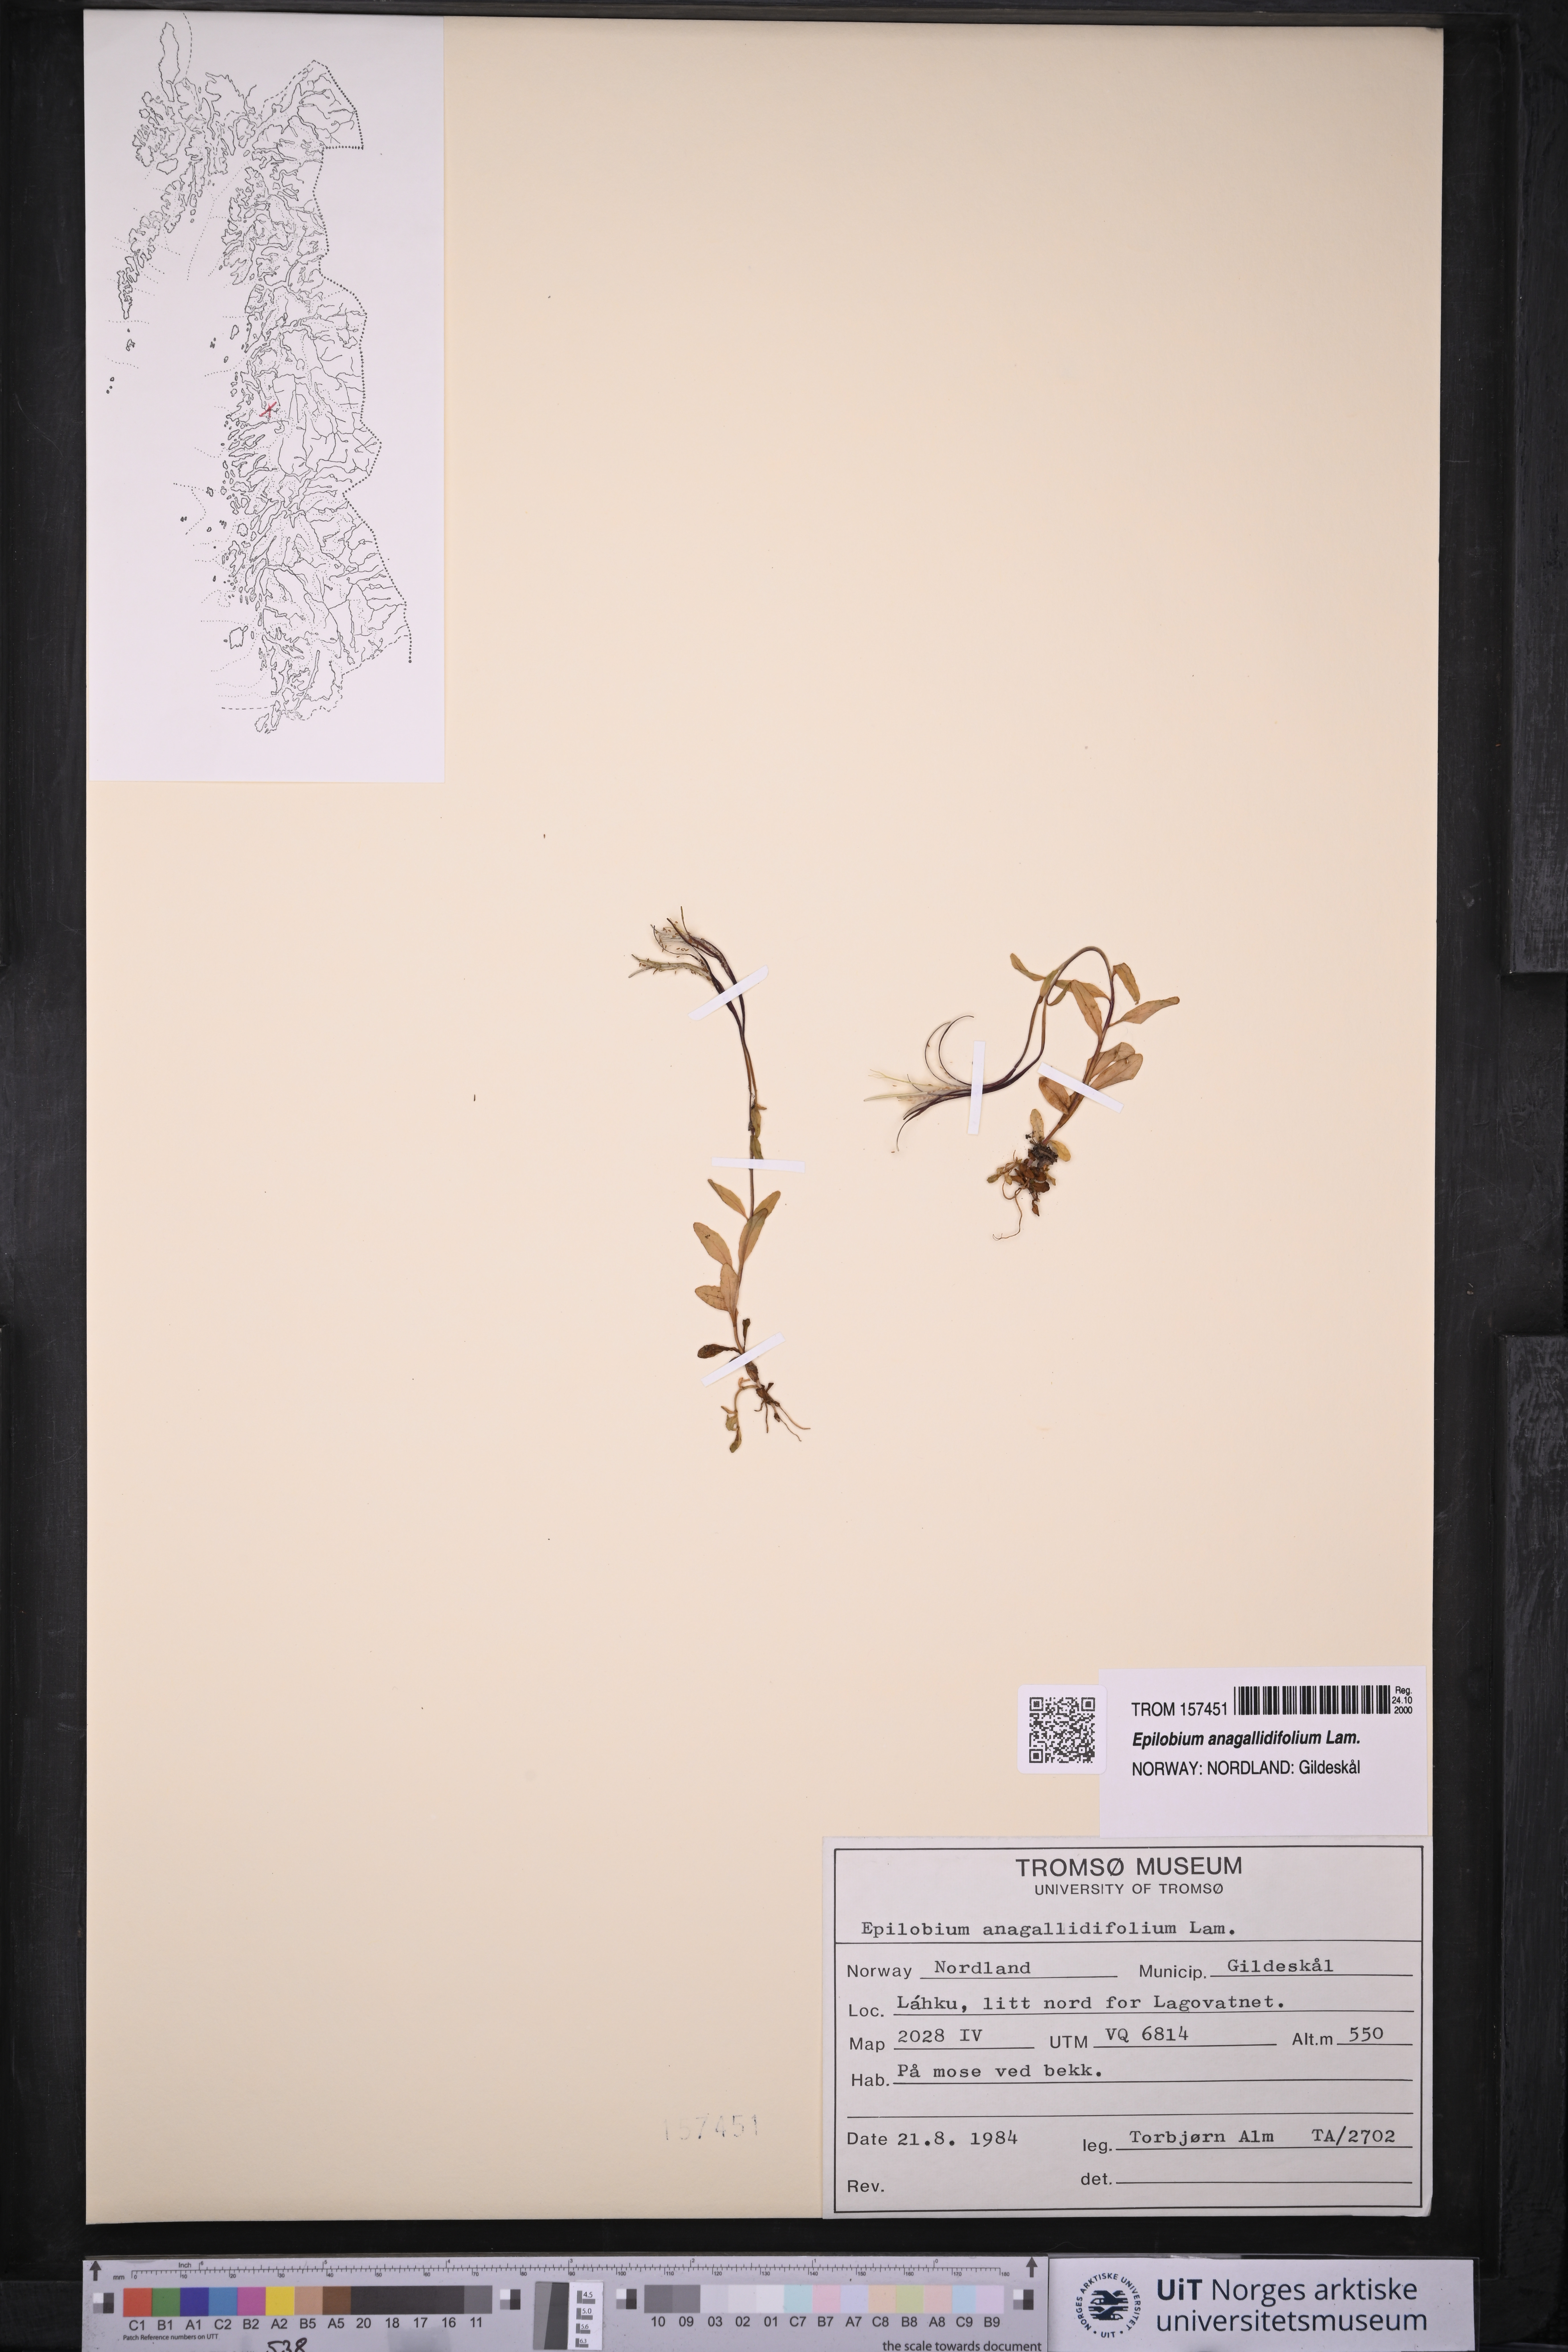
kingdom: Plantae
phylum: Tracheophyta
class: Magnoliopsida
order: Myrtales
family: Onagraceae
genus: Epilobium
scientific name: Epilobium anagallidifolium
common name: Alpine willowherb
